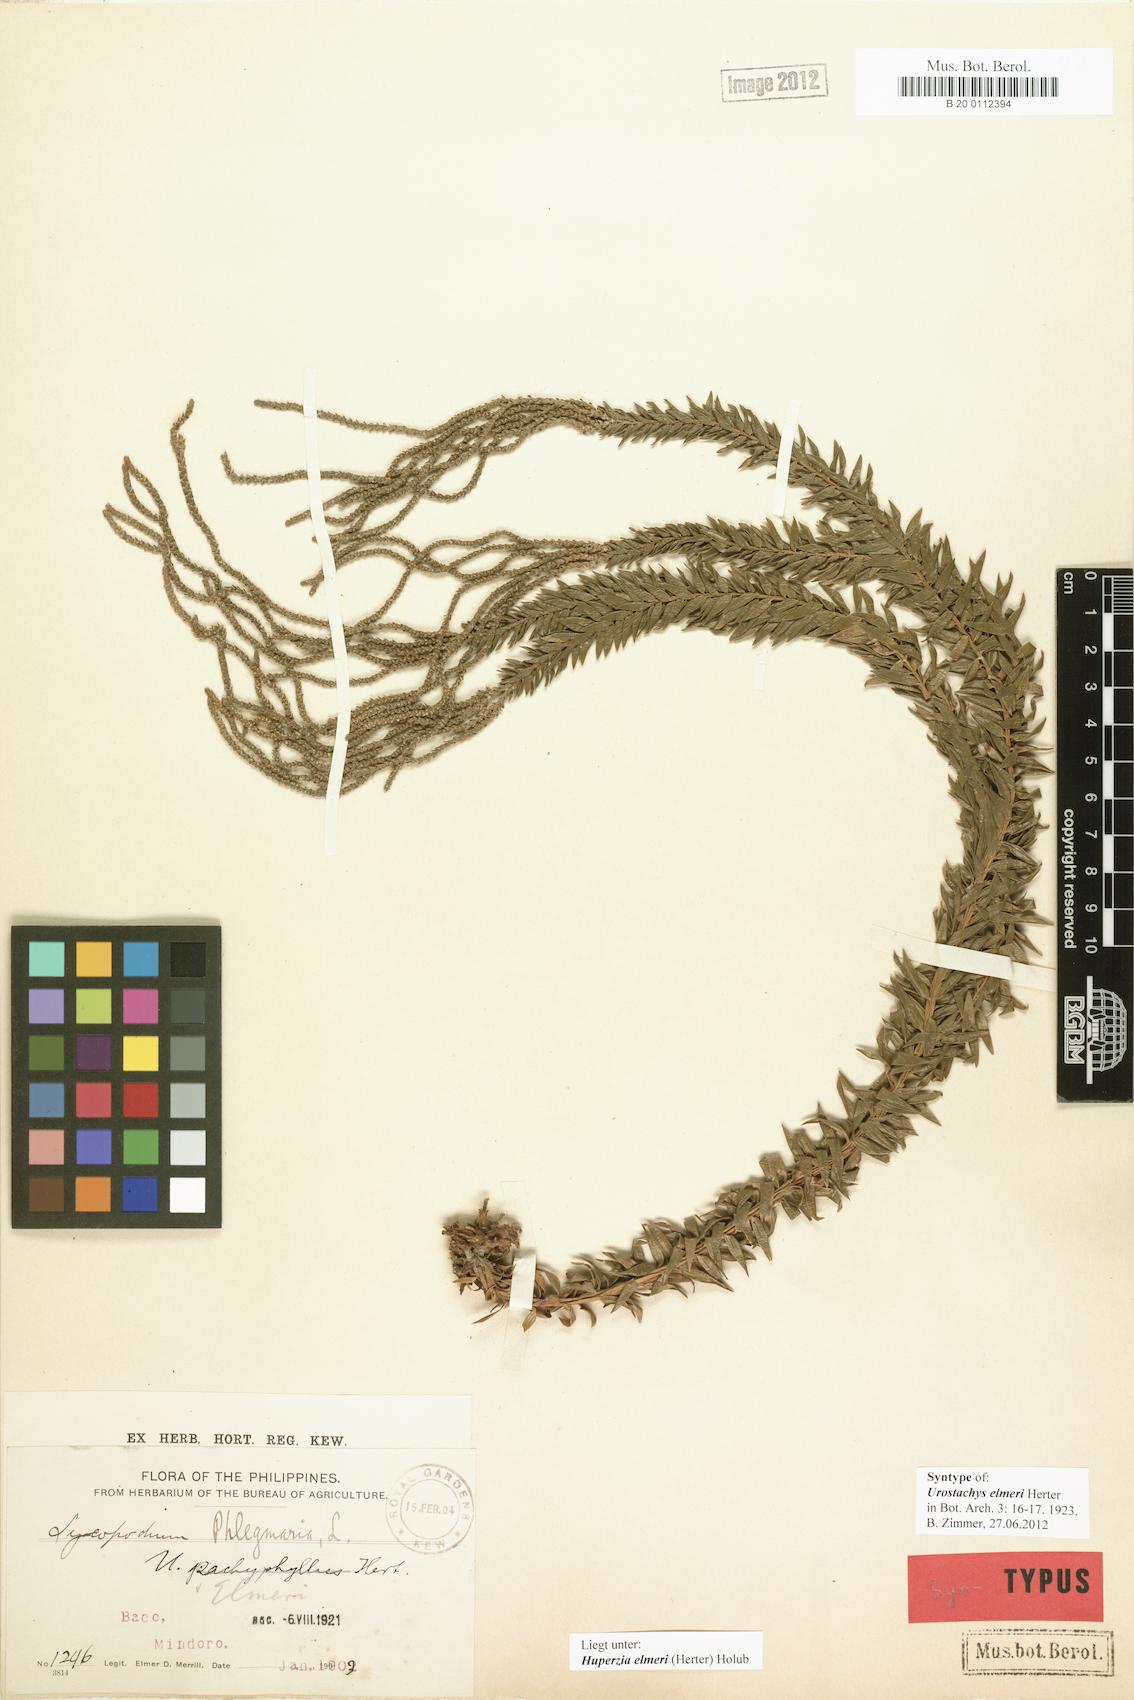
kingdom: Plantae
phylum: Tracheophyta
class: Lycopodiopsida
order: Lycopodiales
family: Lycopodiaceae
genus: Phlegmariurus
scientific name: Phlegmariurus elmeri
